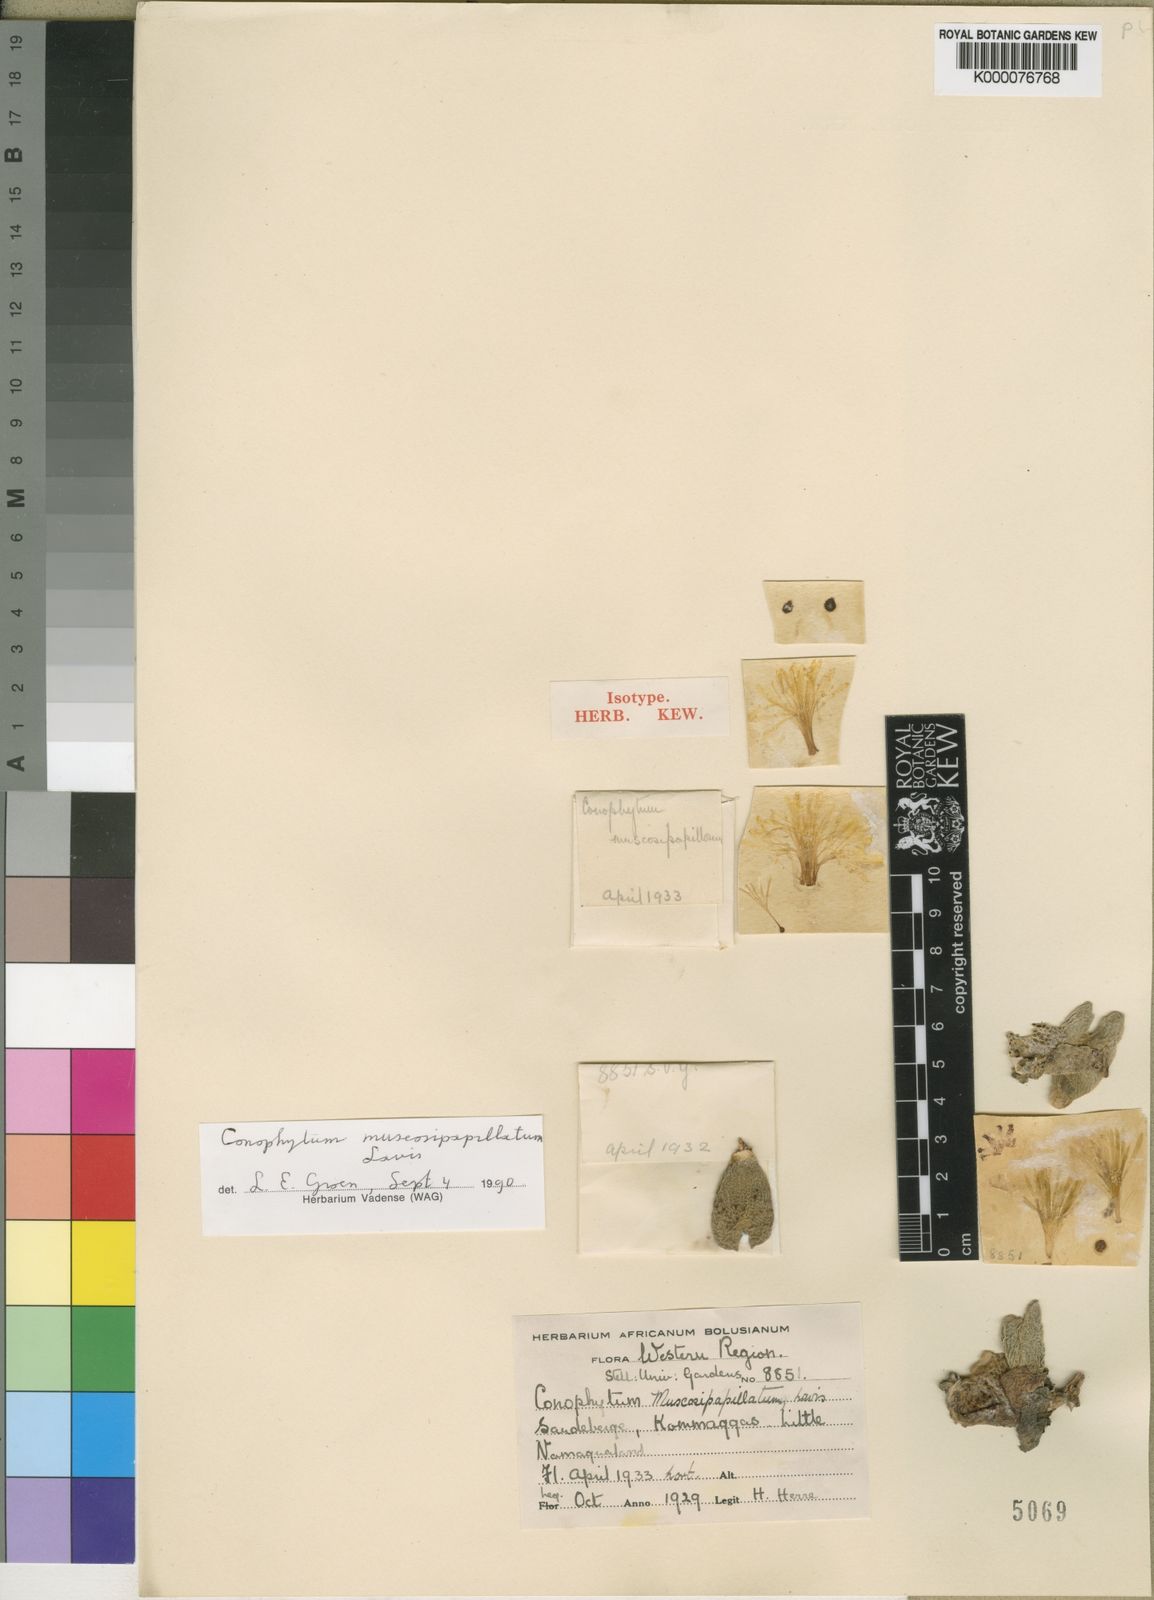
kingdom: Plantae
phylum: Tracheophyta
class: Magnoliopsida
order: Caryophyllales
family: Aizoaceae
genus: Conophytum
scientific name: Conophytum bilobum
